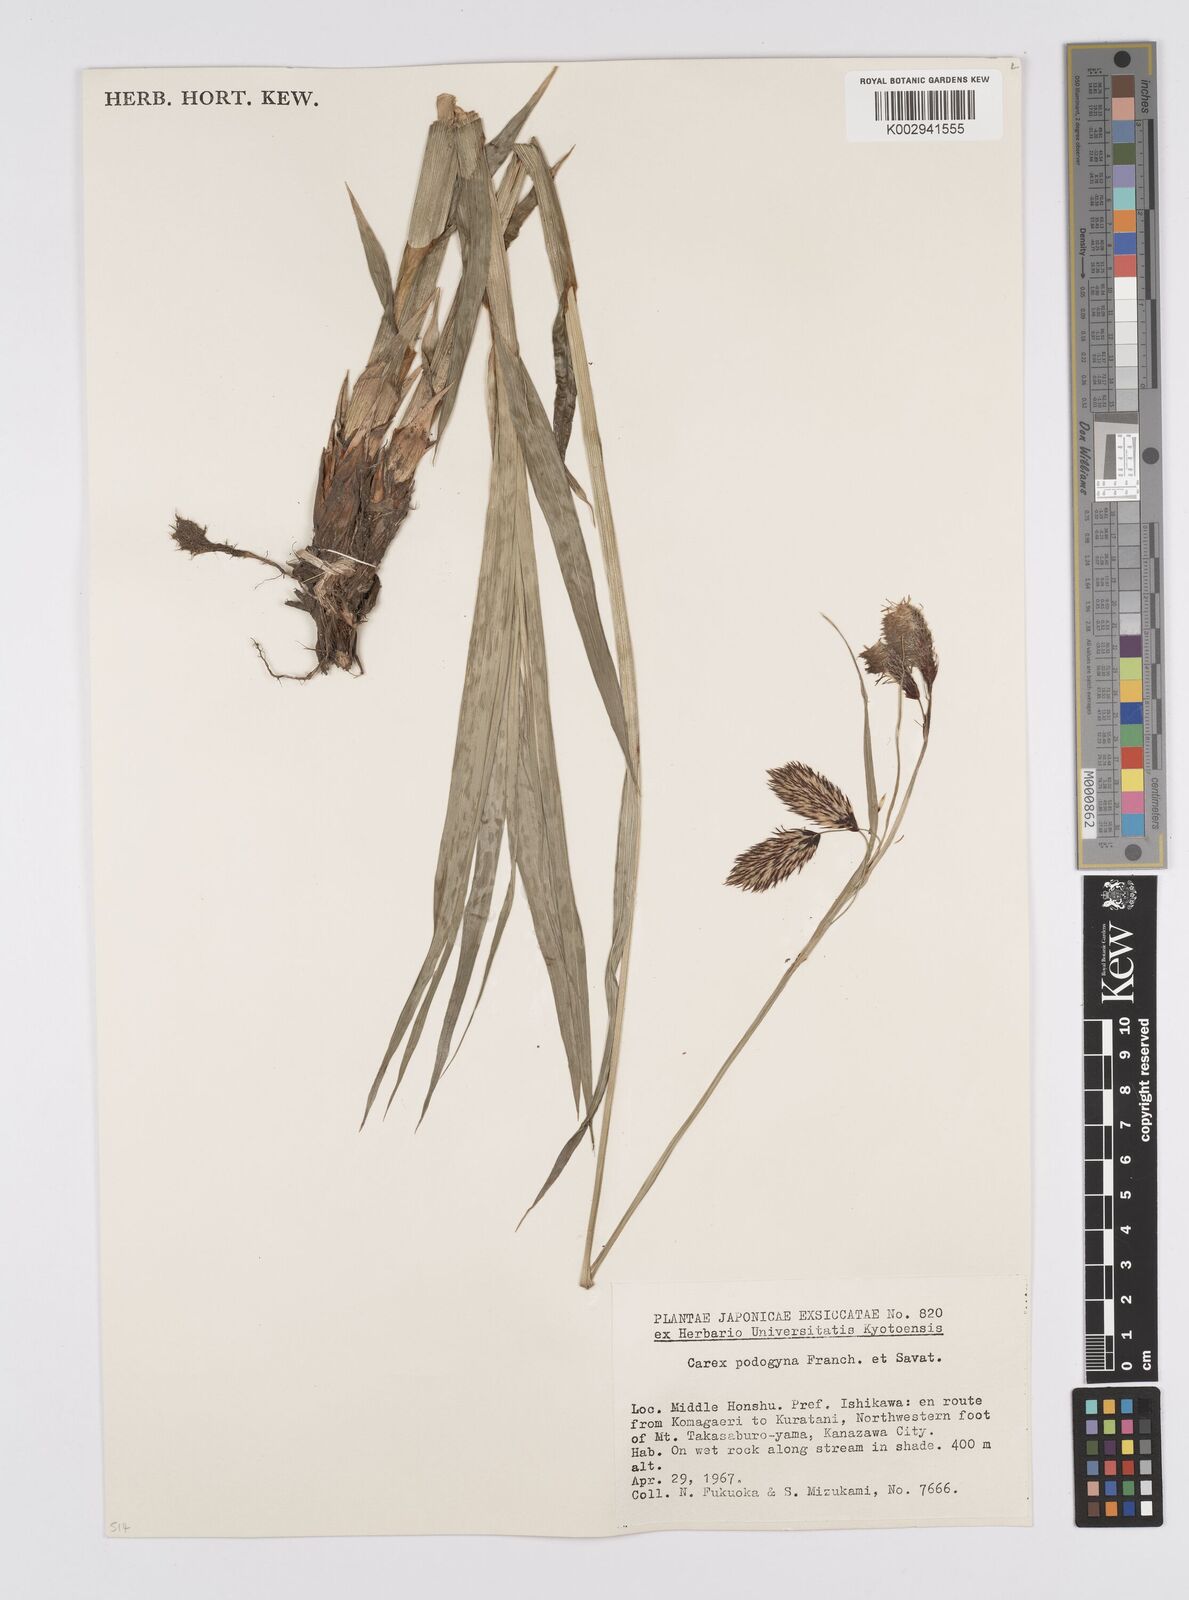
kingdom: Plantae
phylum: Tracheophyta
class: Liliopsida
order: Poales
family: Cyperaceae
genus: Carex
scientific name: Carex podogyna
